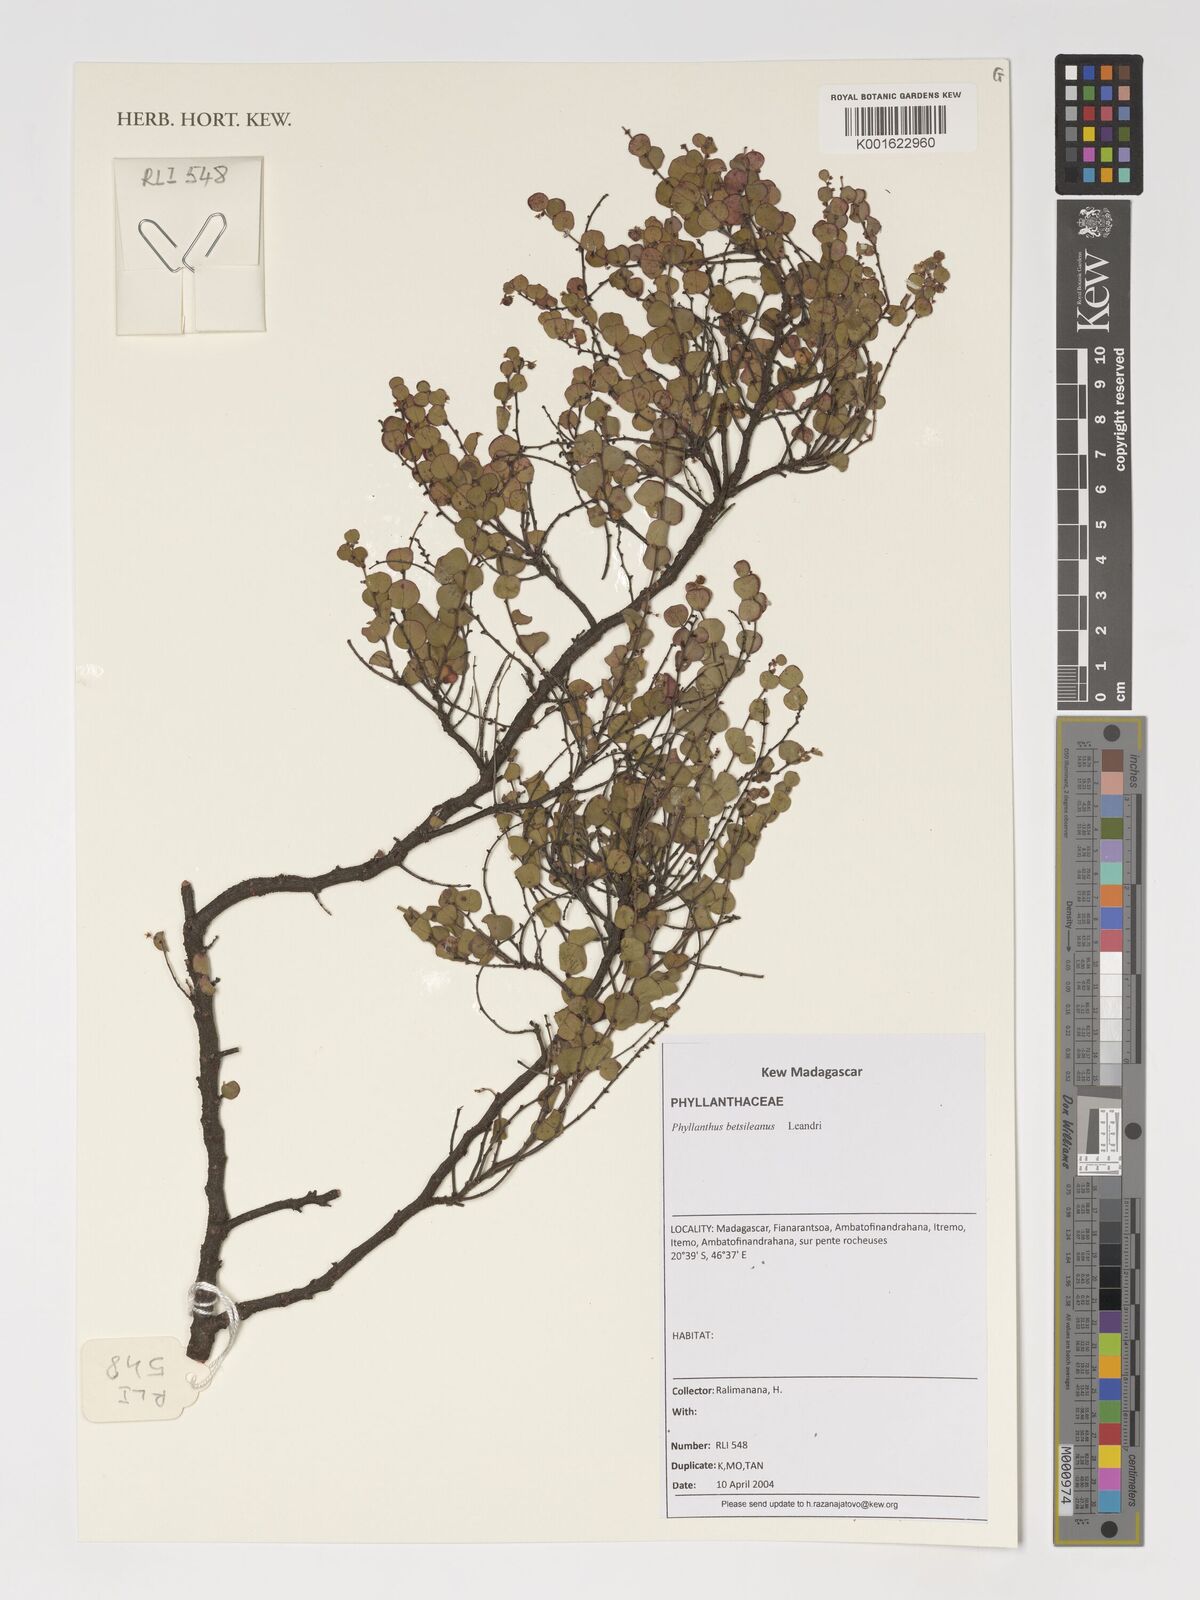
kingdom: Plantae
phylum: Tracheophyta
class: Magnoliopsida
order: Malpighiales
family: Phyllanthaceae
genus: Phyllanthus
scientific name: Phyllanthus betsileanus
